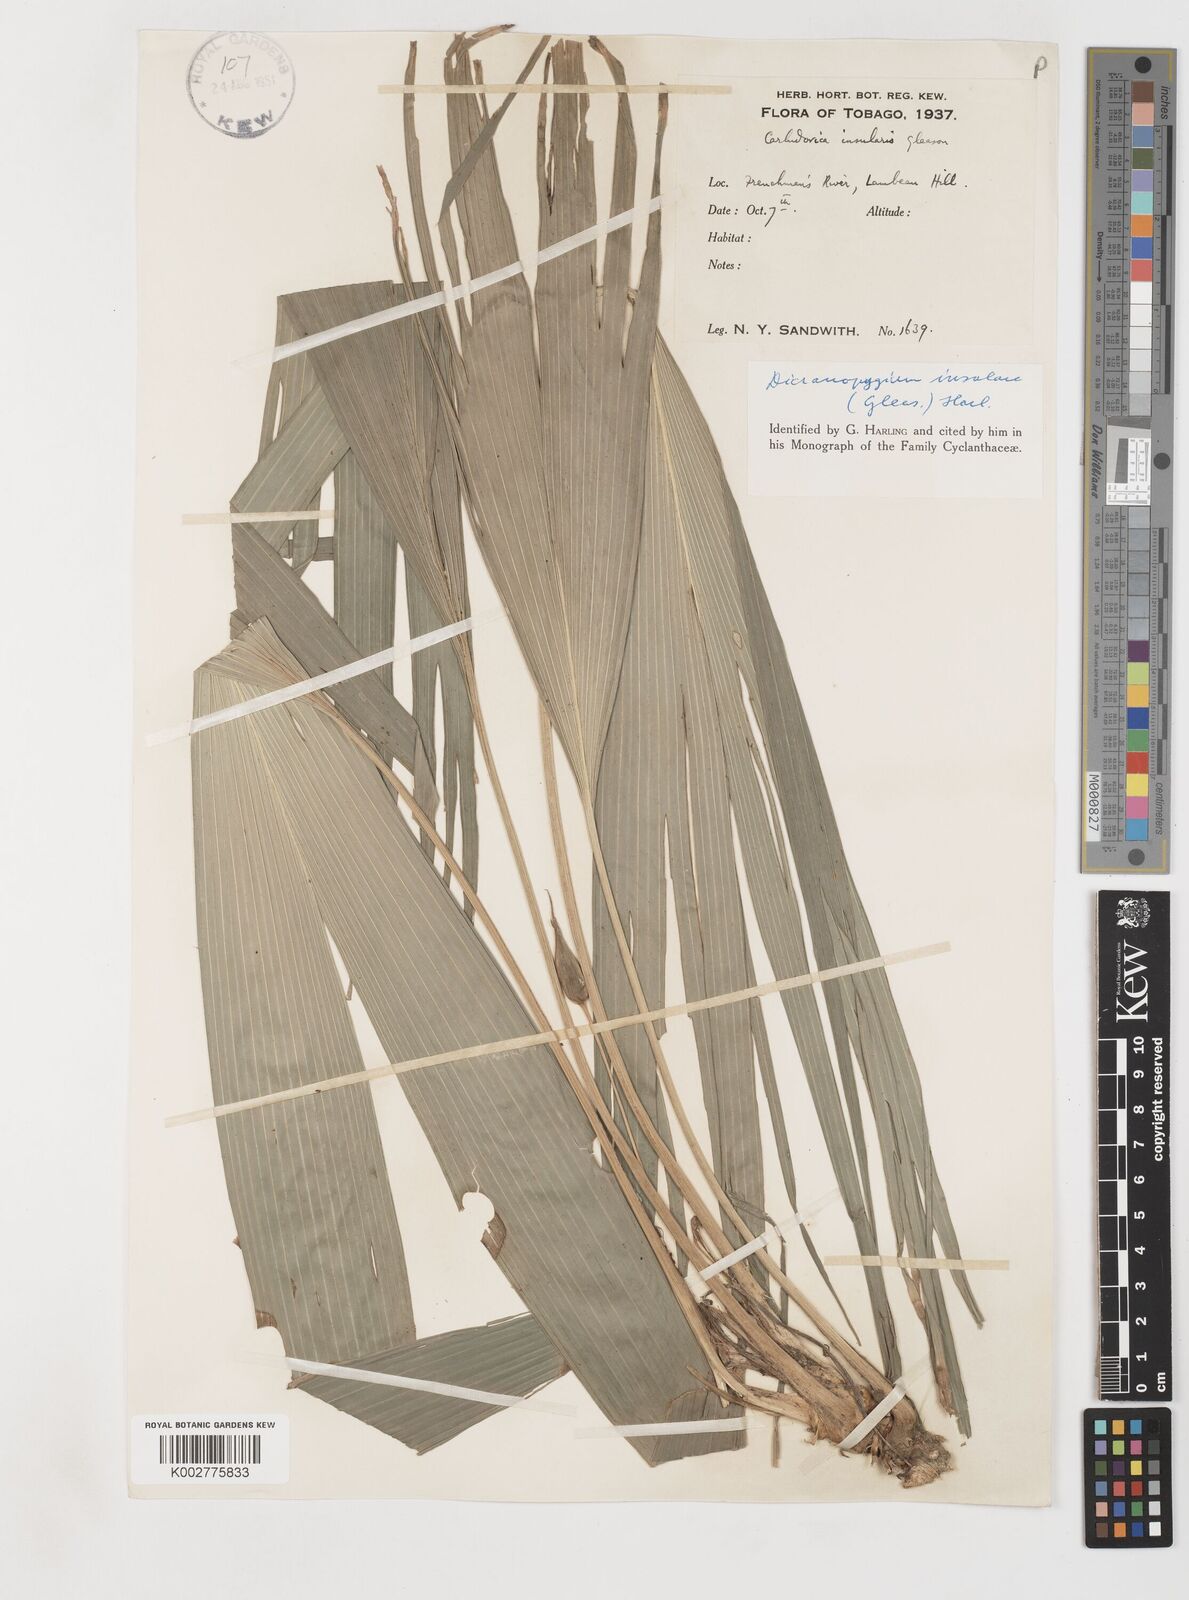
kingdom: Plantae
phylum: Tracheophyta
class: Liliopsida
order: Pandanales
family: Cyclanthaceae
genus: Dicranopygium
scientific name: Dicranopygium insulare
